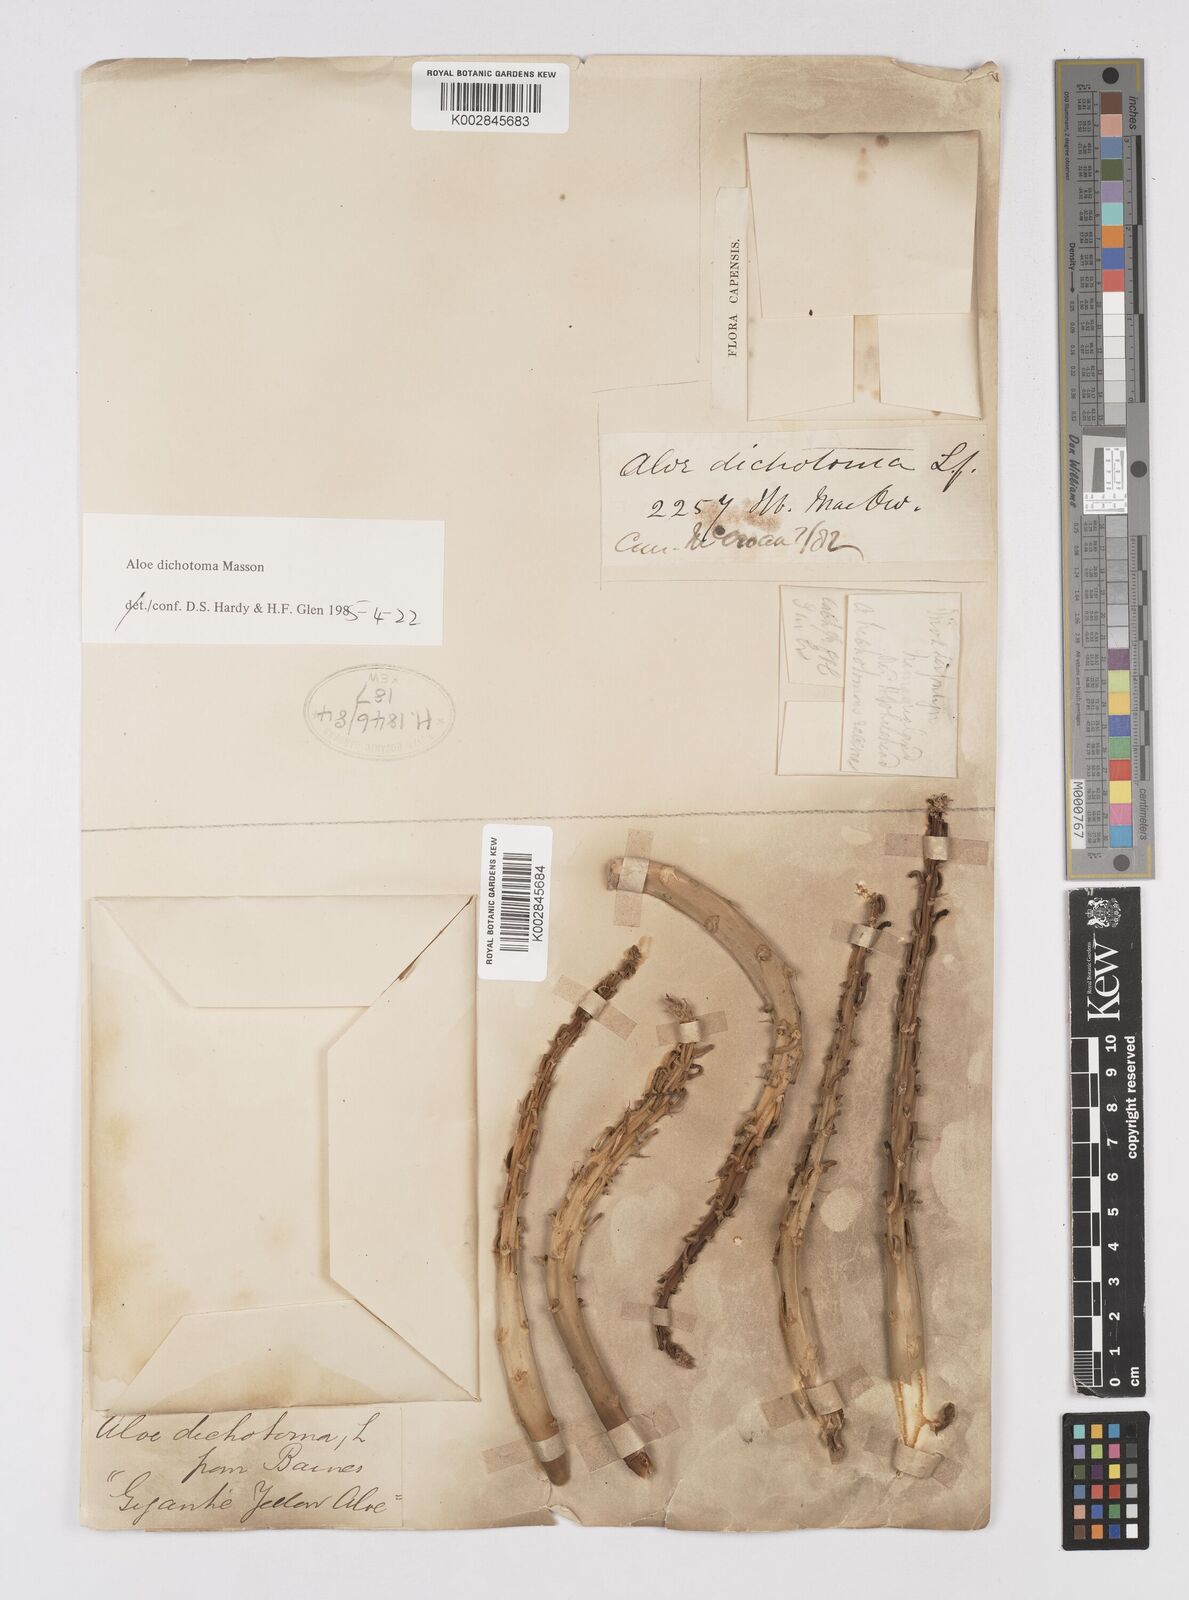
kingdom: Plantae
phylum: Tracheophyta
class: Liliopsida
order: Asparagales
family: Asphodelaceae
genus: Aloidendron
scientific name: Aloidendron dichotomum
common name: Quiver tree
